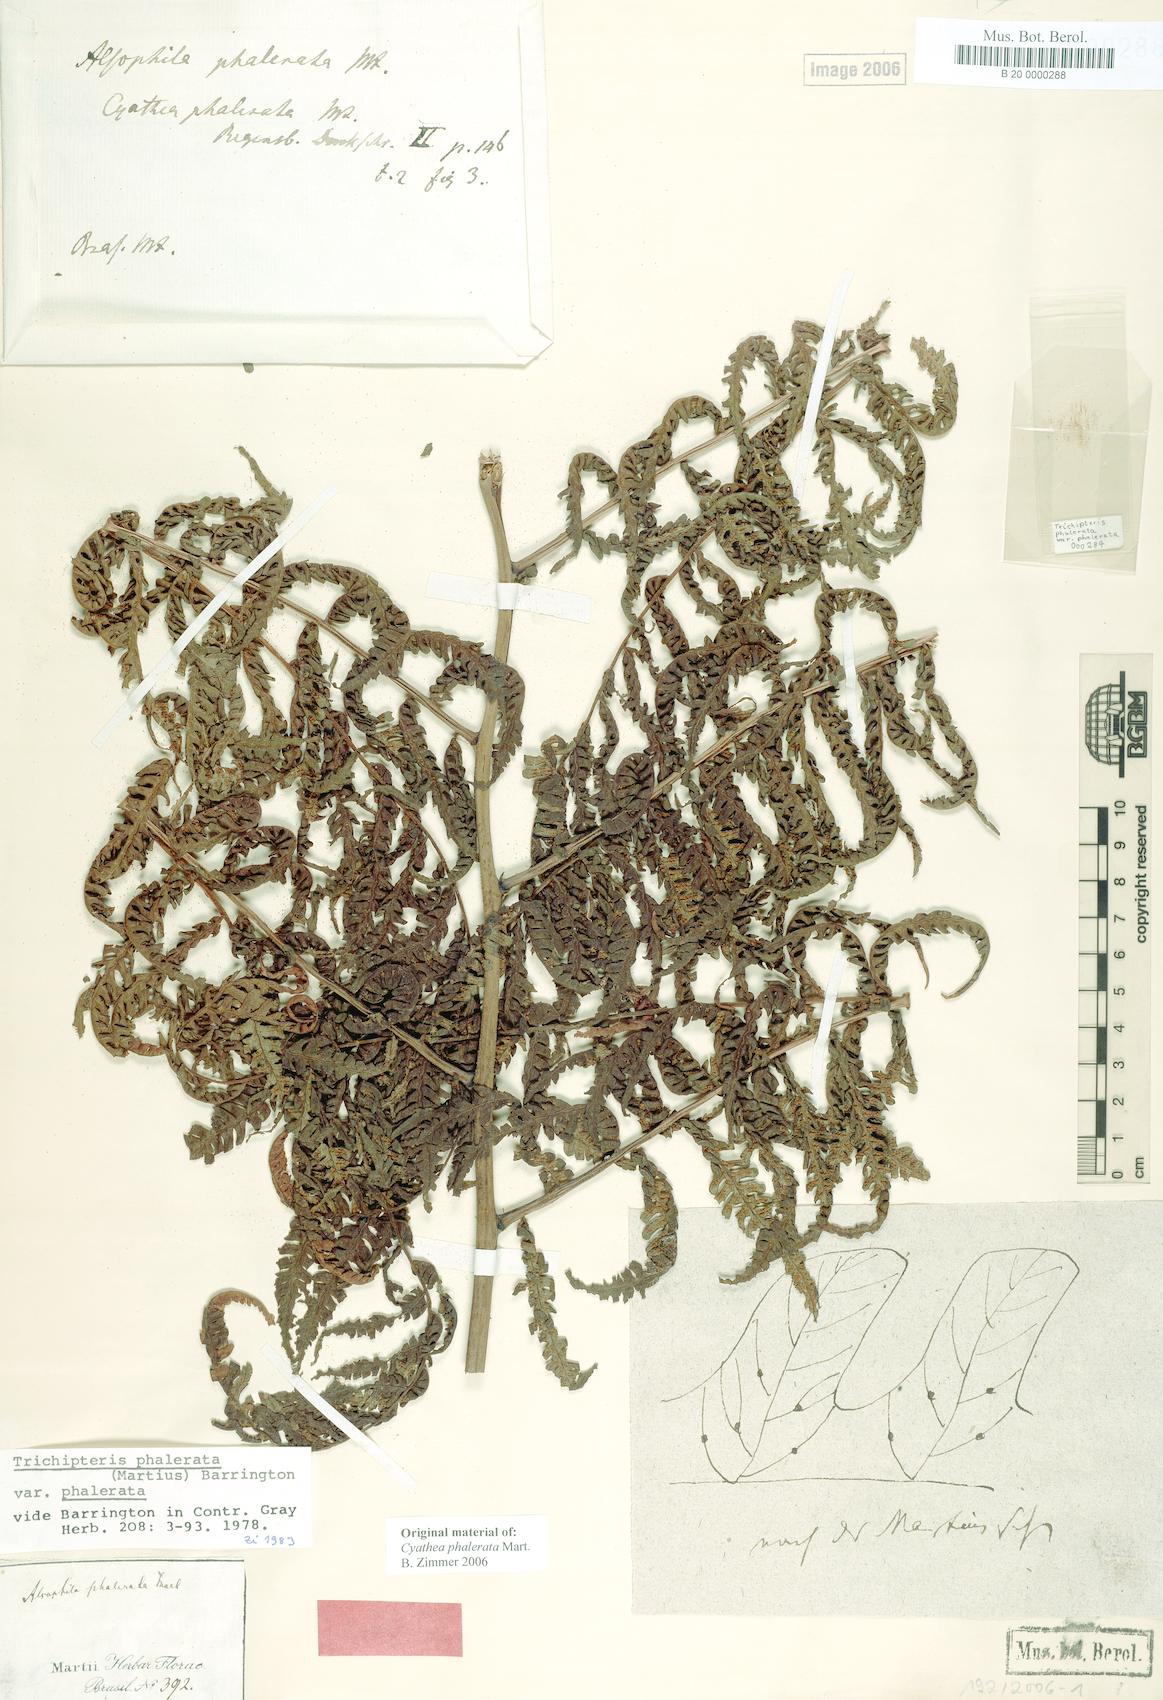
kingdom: Plantae
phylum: Tracheophyta
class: Polypodiopsida
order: Cyatheales
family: Cyatheaceae
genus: Cyathea
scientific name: Cyathea phalerata
